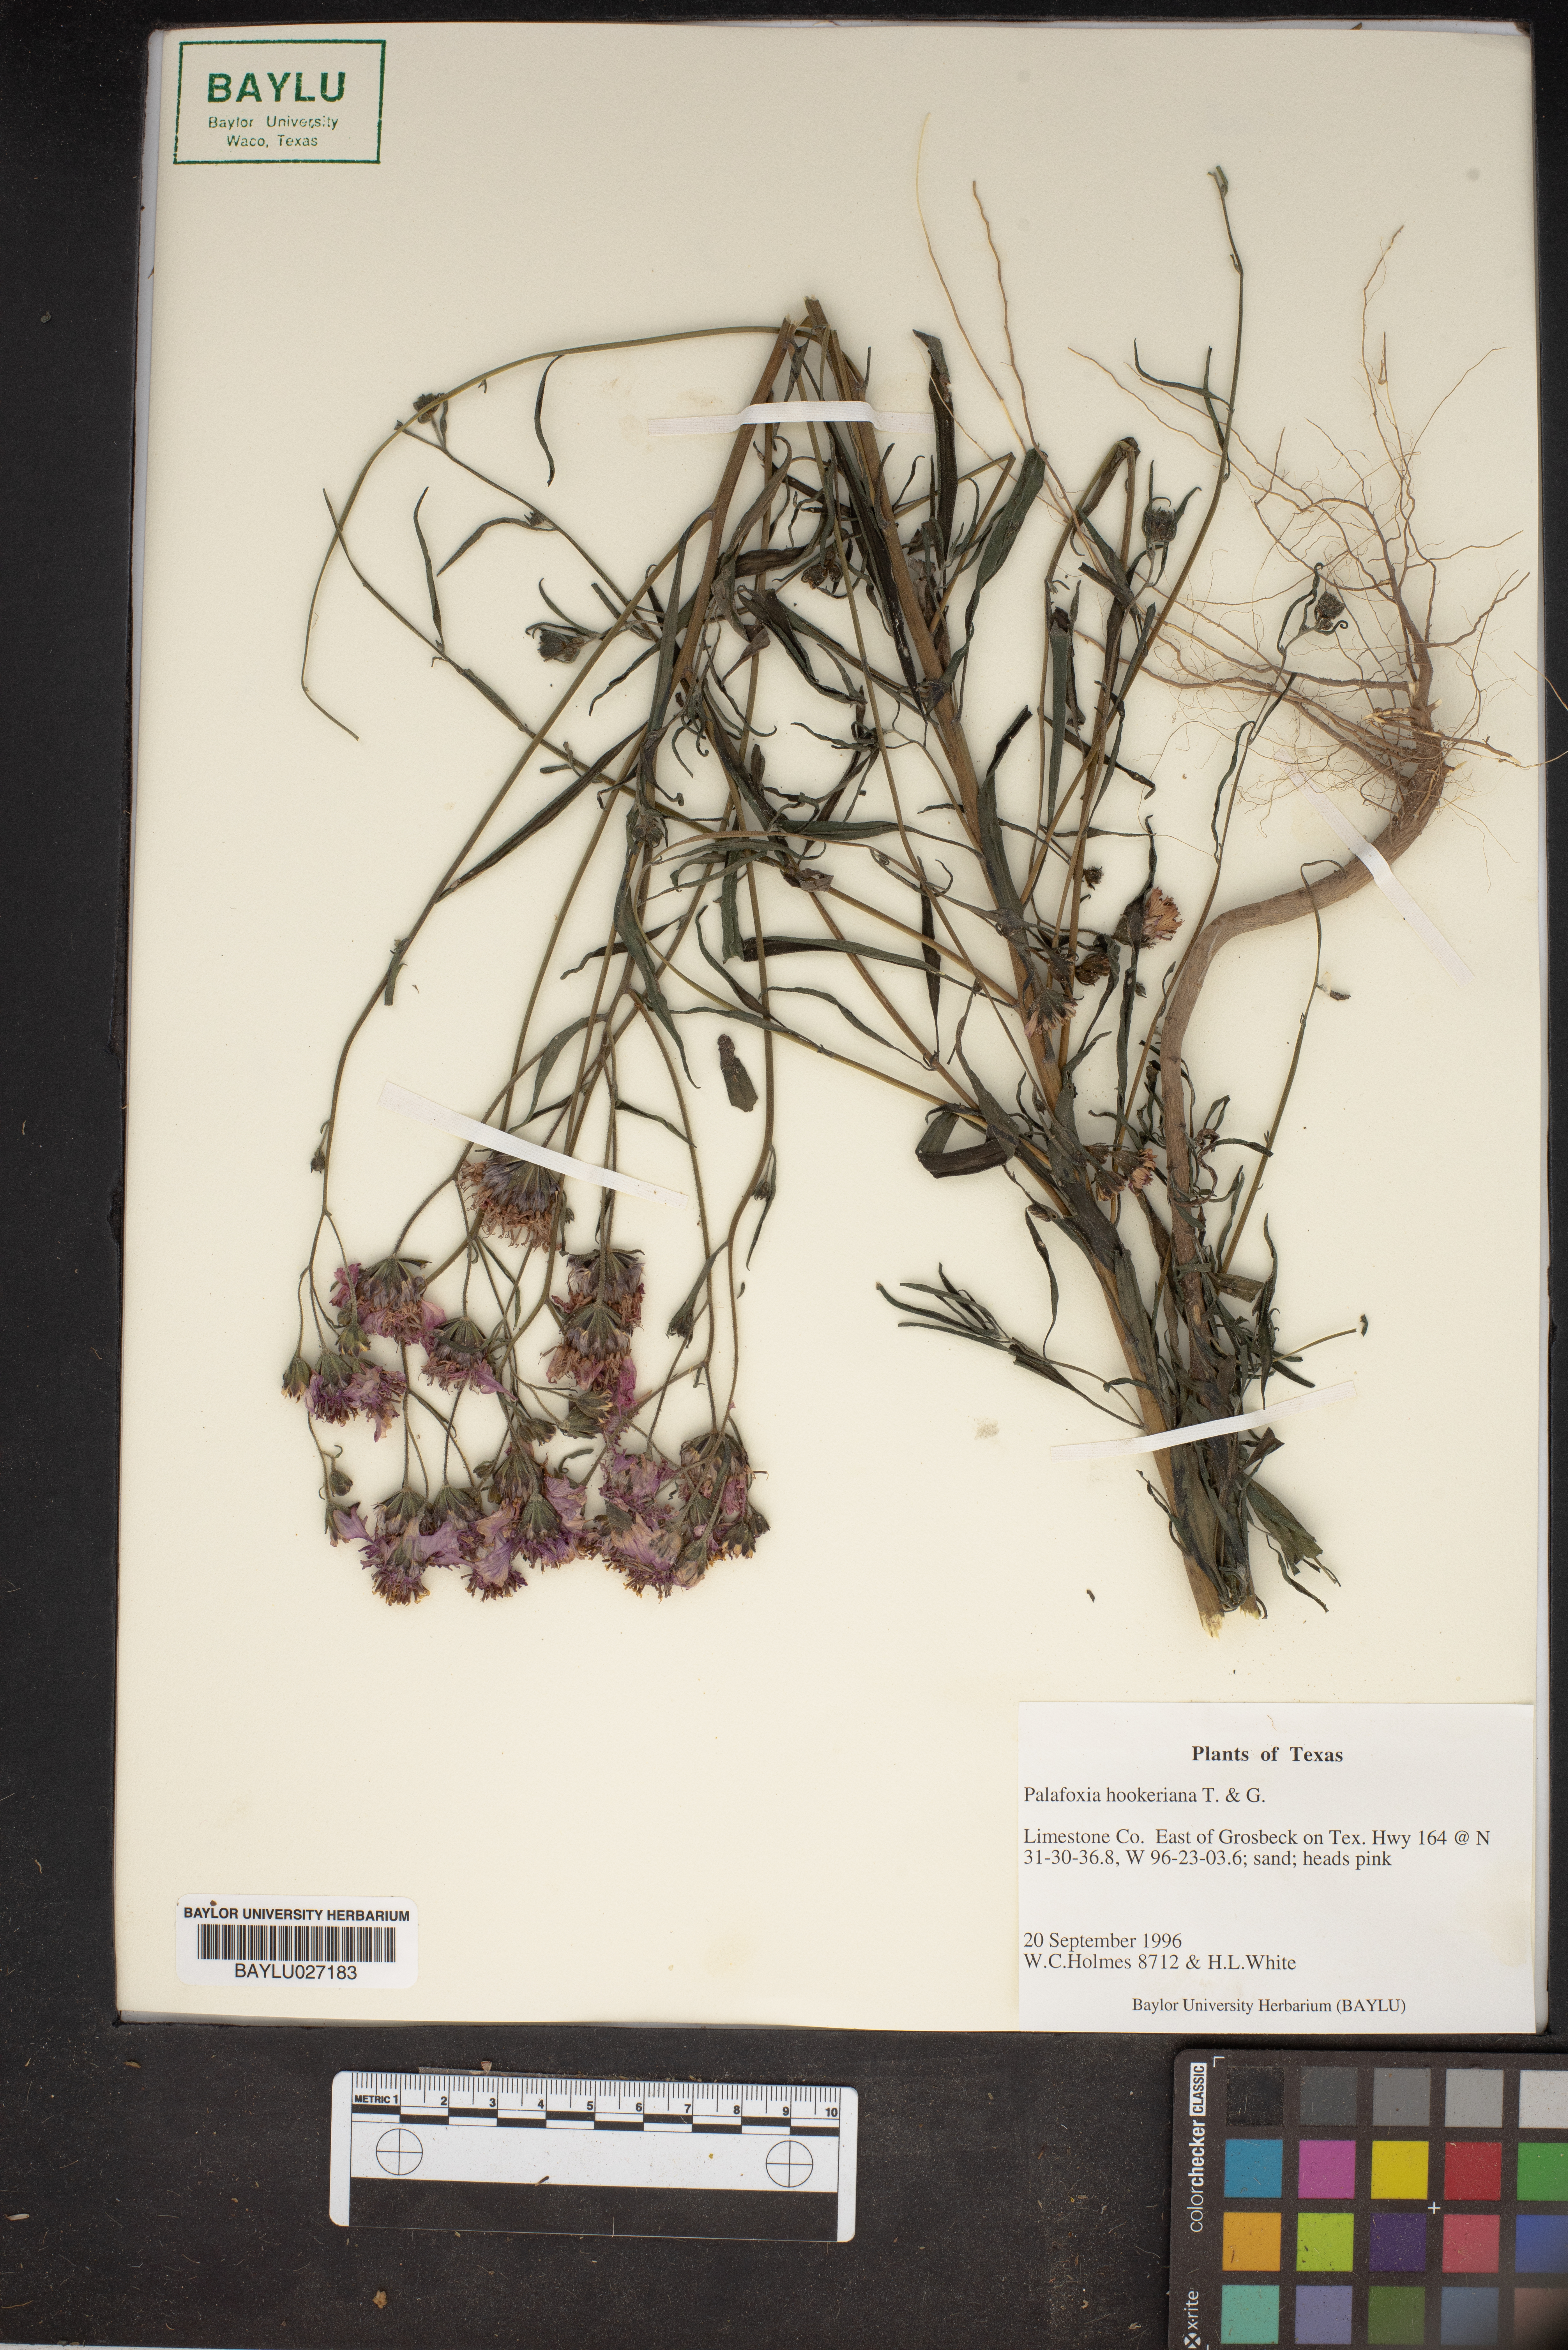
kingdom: Plantae
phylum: Tracheophyta
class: Magnoliopsida
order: Asterales
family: Asteraceae
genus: Palafoxia
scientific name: Palafoxia hookeriana
